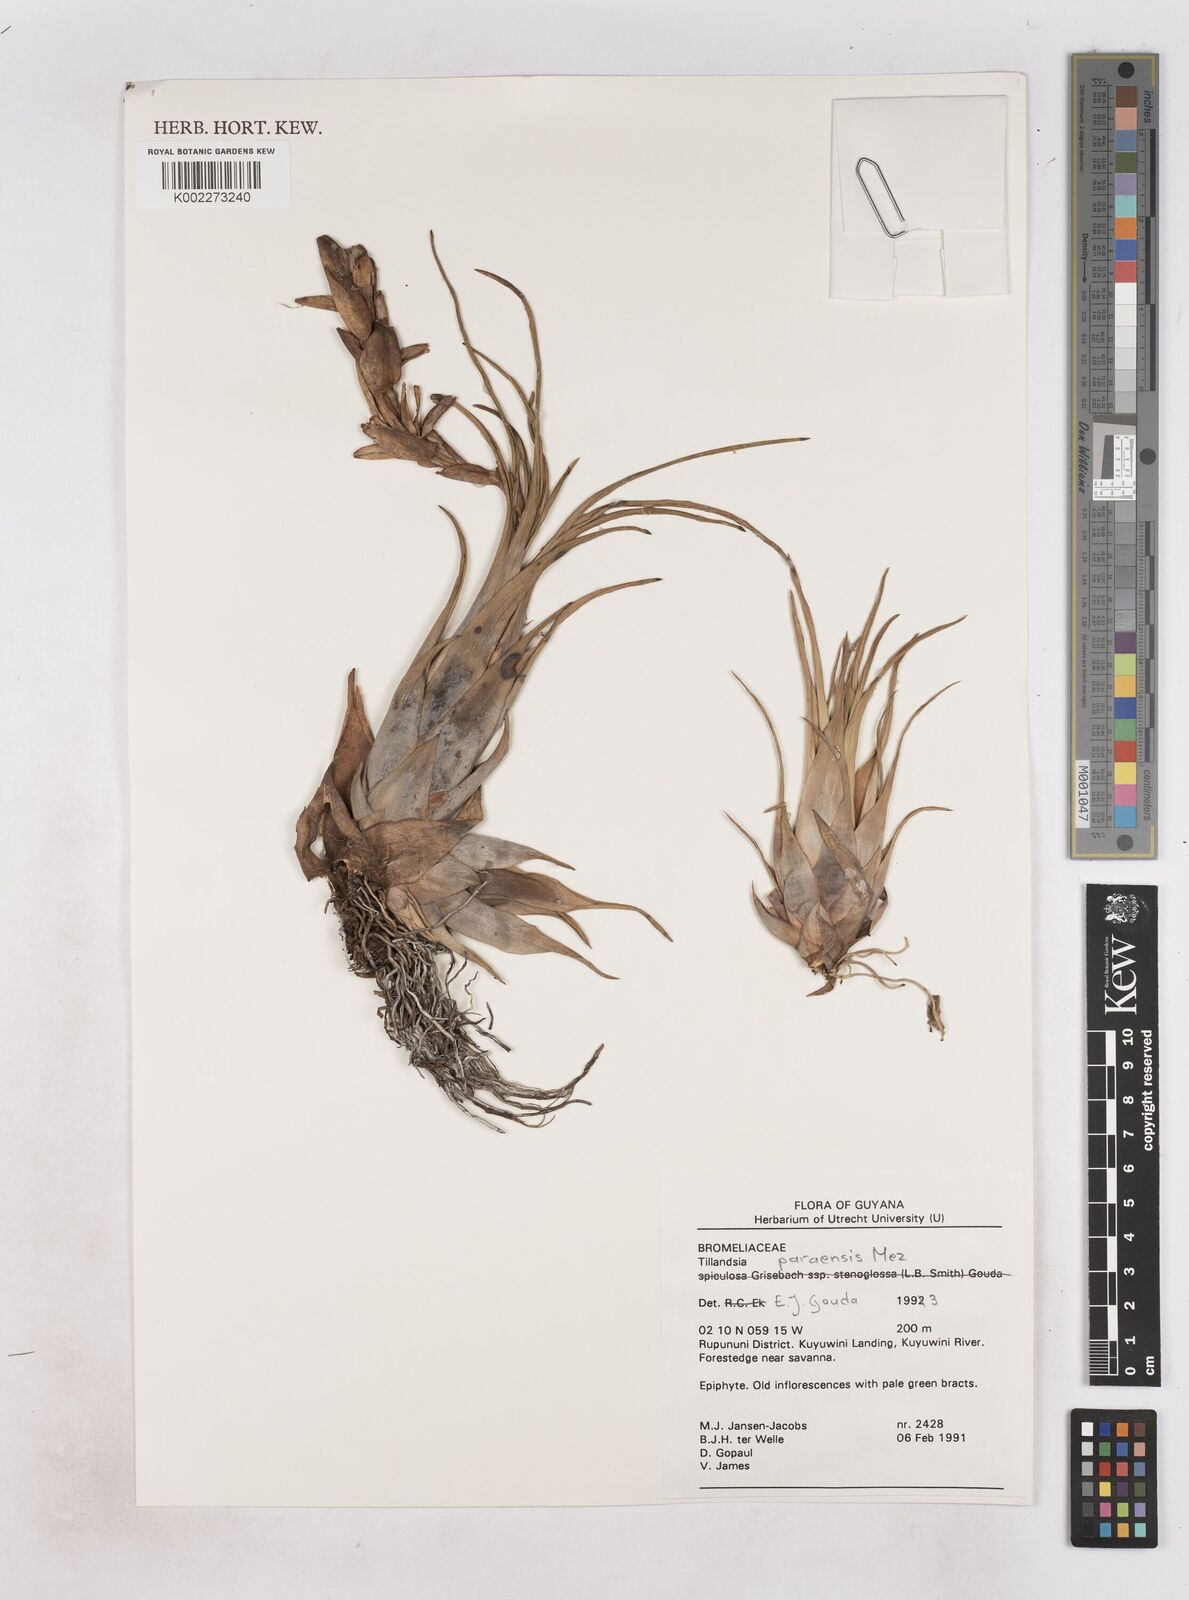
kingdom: Plantae
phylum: Tracheophyta
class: Liliopsida
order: Poales
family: Bromeliaceae
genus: Tillandsia
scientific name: Tillandsia paraensis
